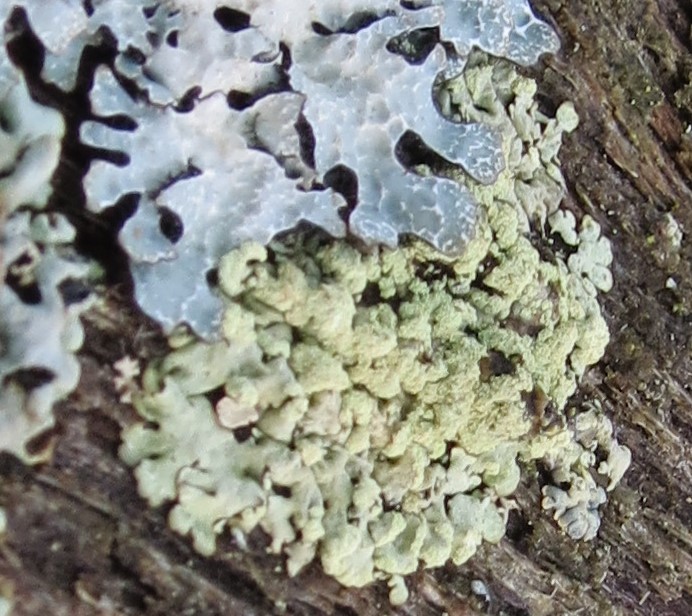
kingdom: Fungi
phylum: Ascomycota
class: Lecanoromycetes
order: Lecanorales
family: Parmeliaceae
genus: Parmeliopsis
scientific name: Parmeliopsis ambigua
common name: gul stolpelav
